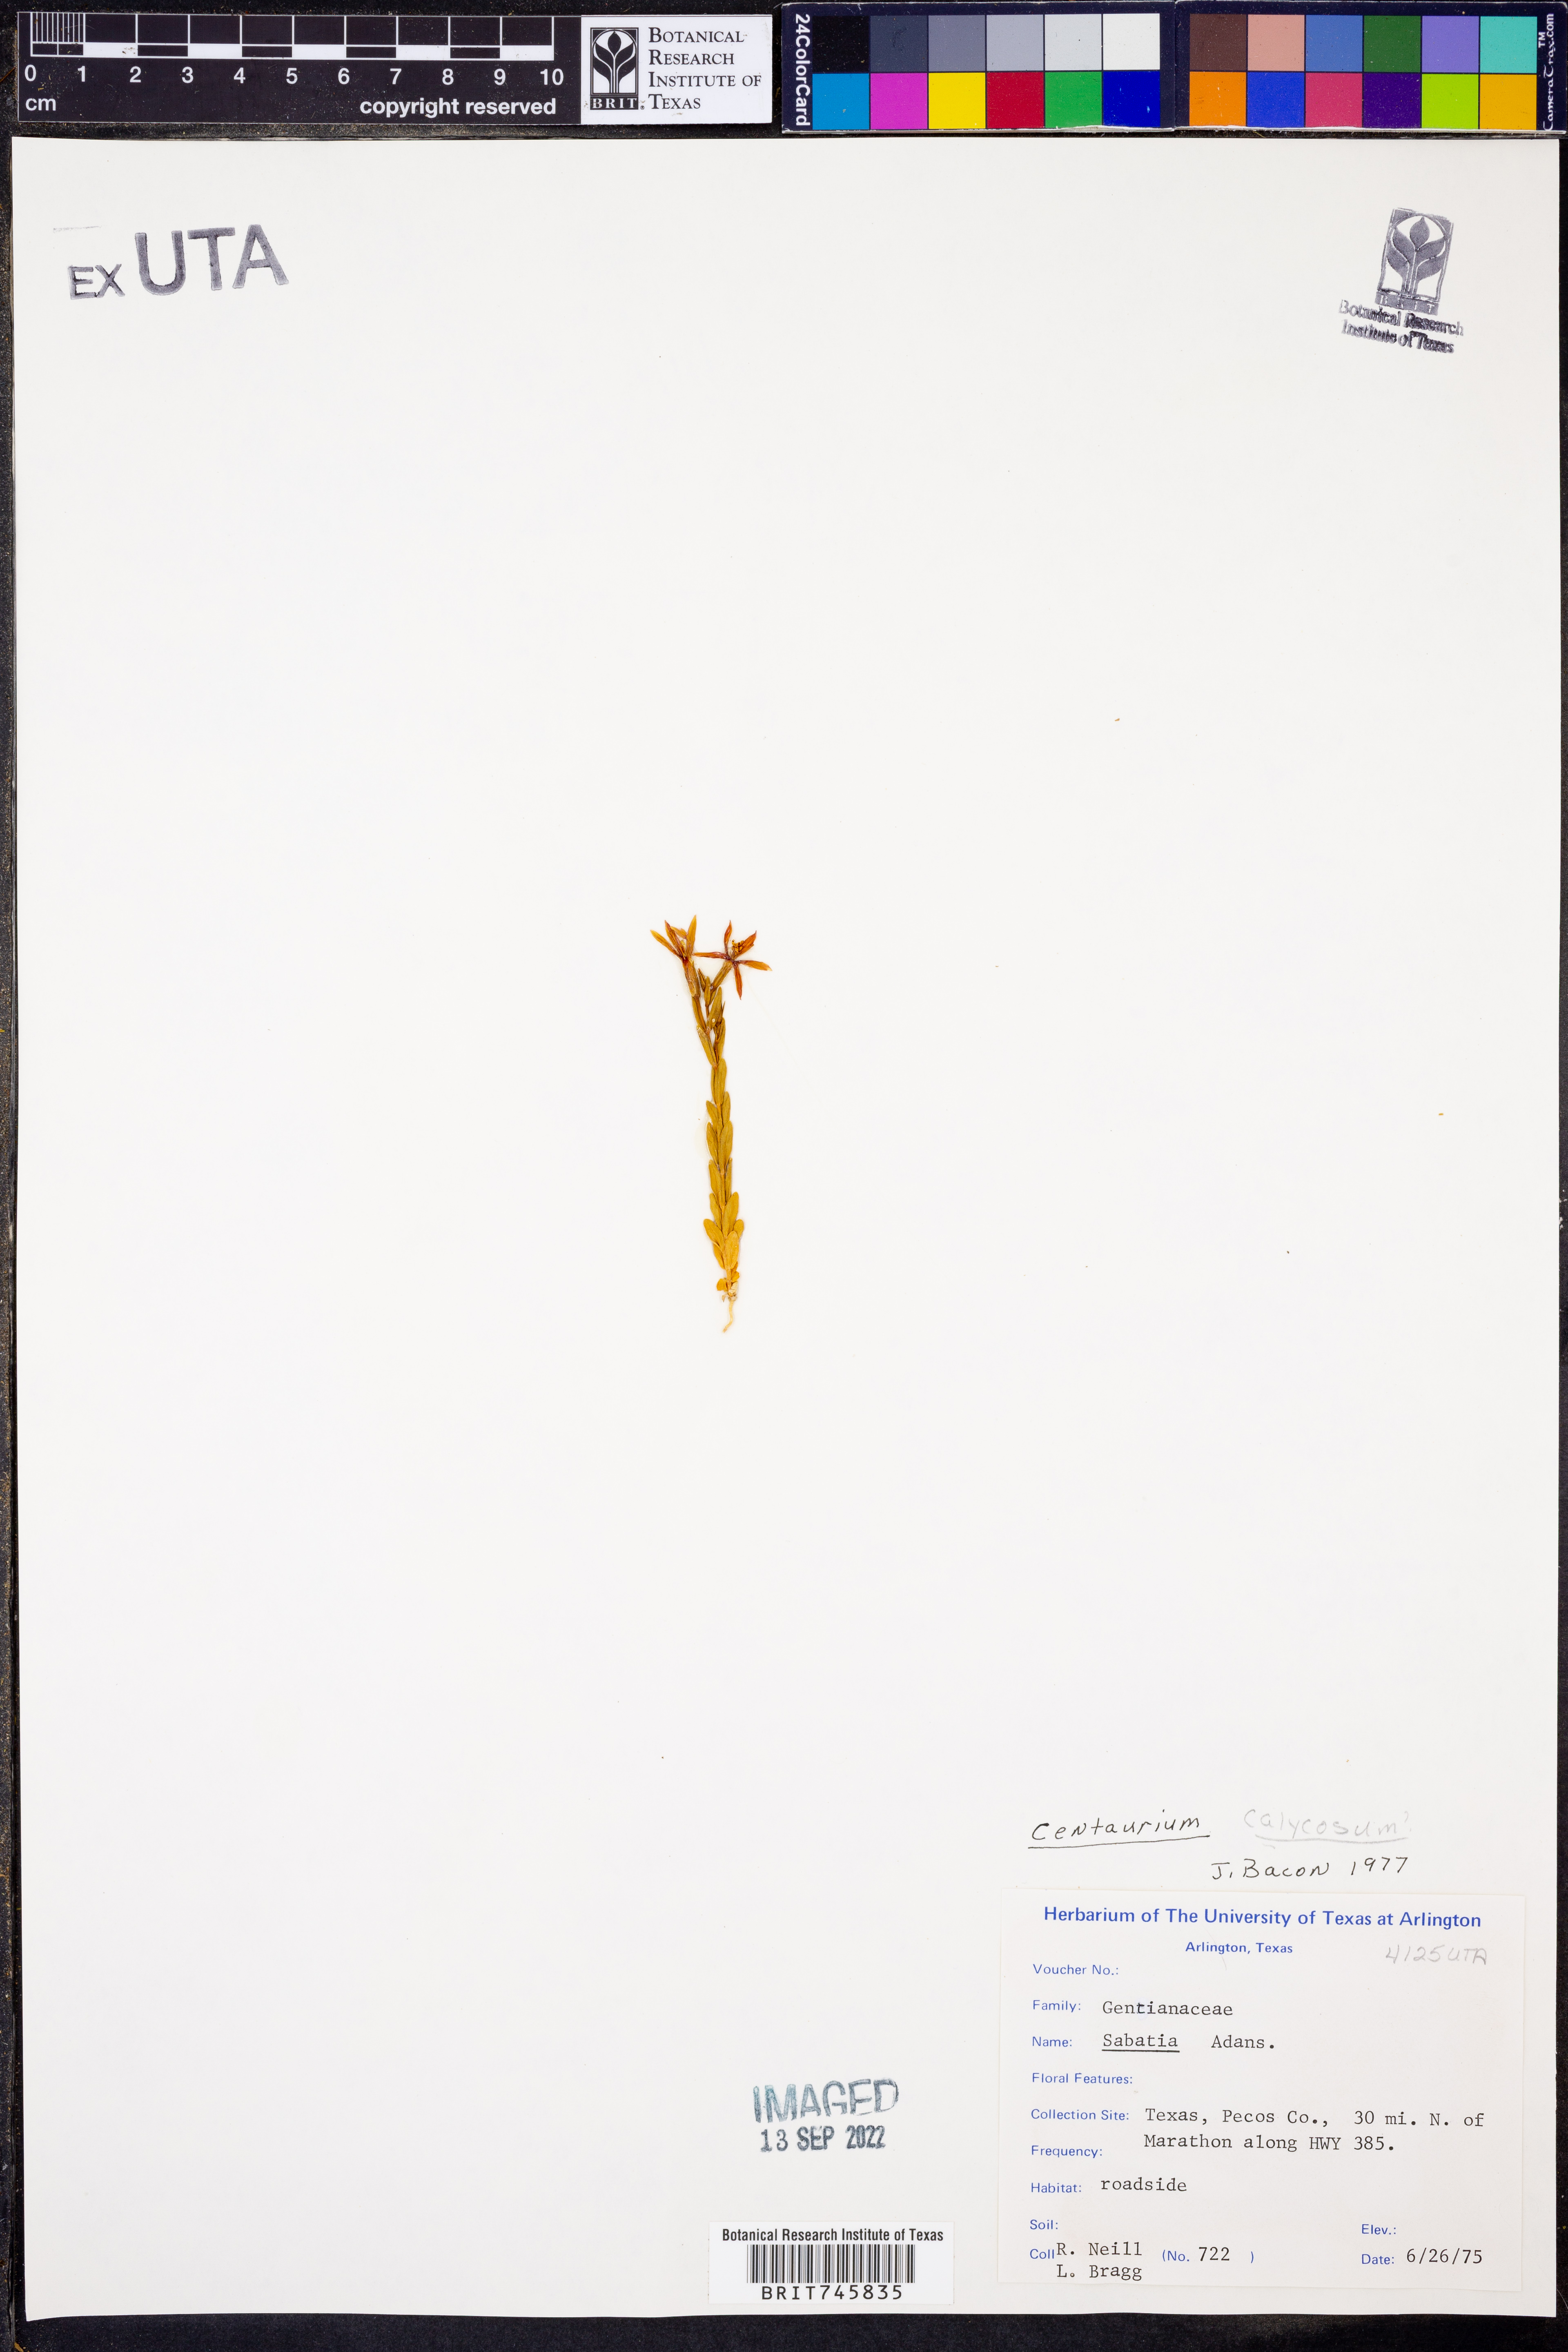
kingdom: Plantae
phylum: Tracheophyta
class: Magnoliopsida
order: Gentianales
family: Gentianaceae
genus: Zeltnera
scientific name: Zeltnera calycosa
